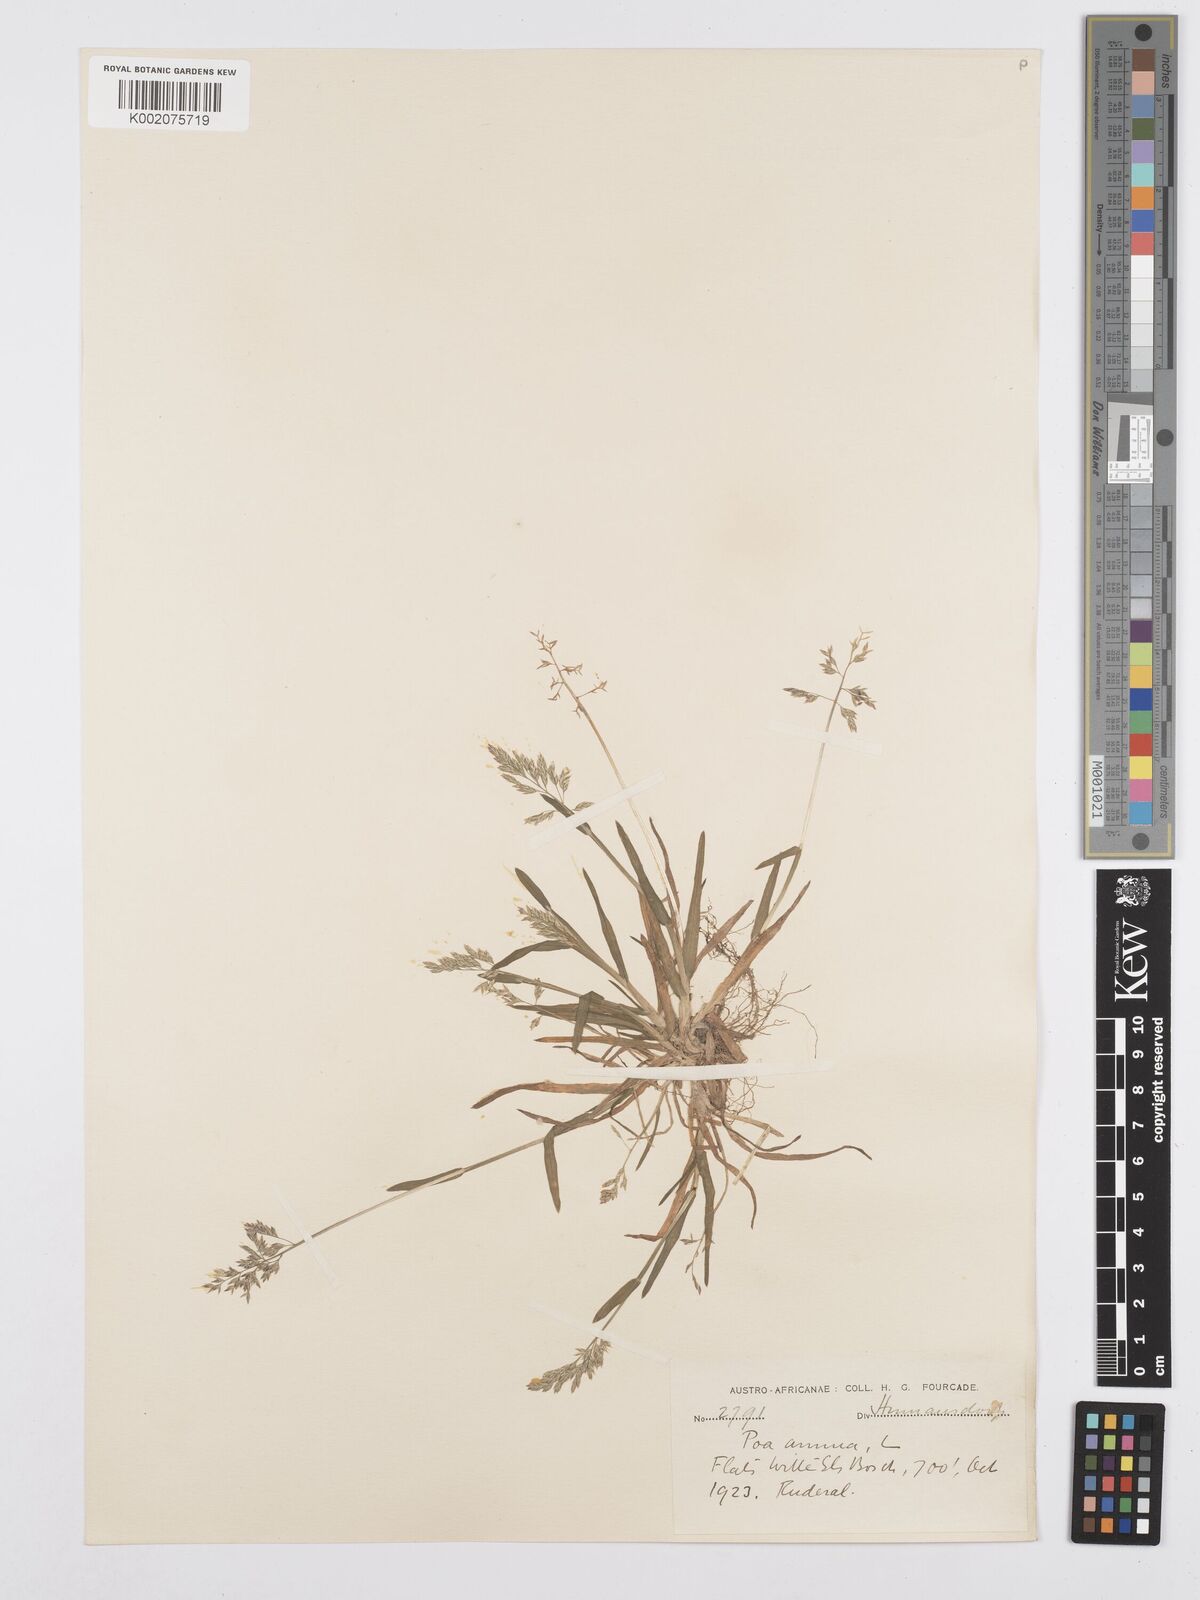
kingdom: Plantae
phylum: Tracheophyta
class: Liliopsida
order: Poales
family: Poaceae
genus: Poa
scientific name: Poa annua
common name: Annual bluegrass
